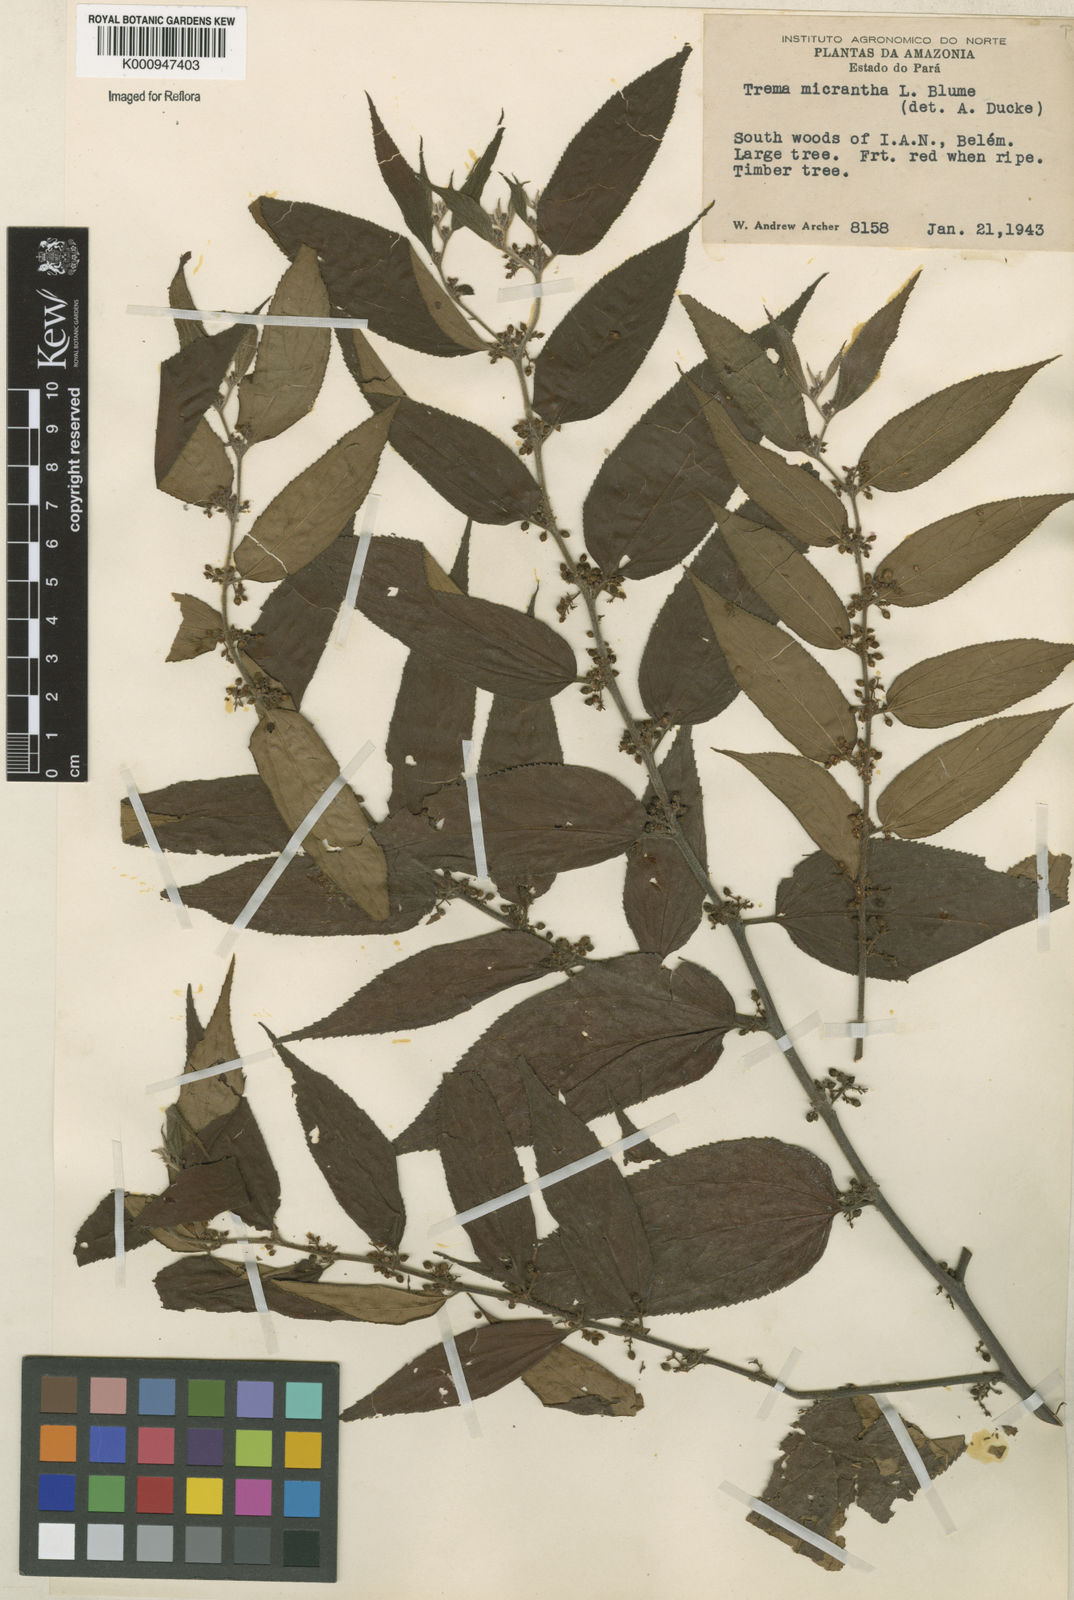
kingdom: Plantae
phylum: Tracheophyta
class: Magnoliopsida
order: Rosales
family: Cannabaceae
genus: Trema
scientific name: Trema micranthum
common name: Jamaican nettletree
